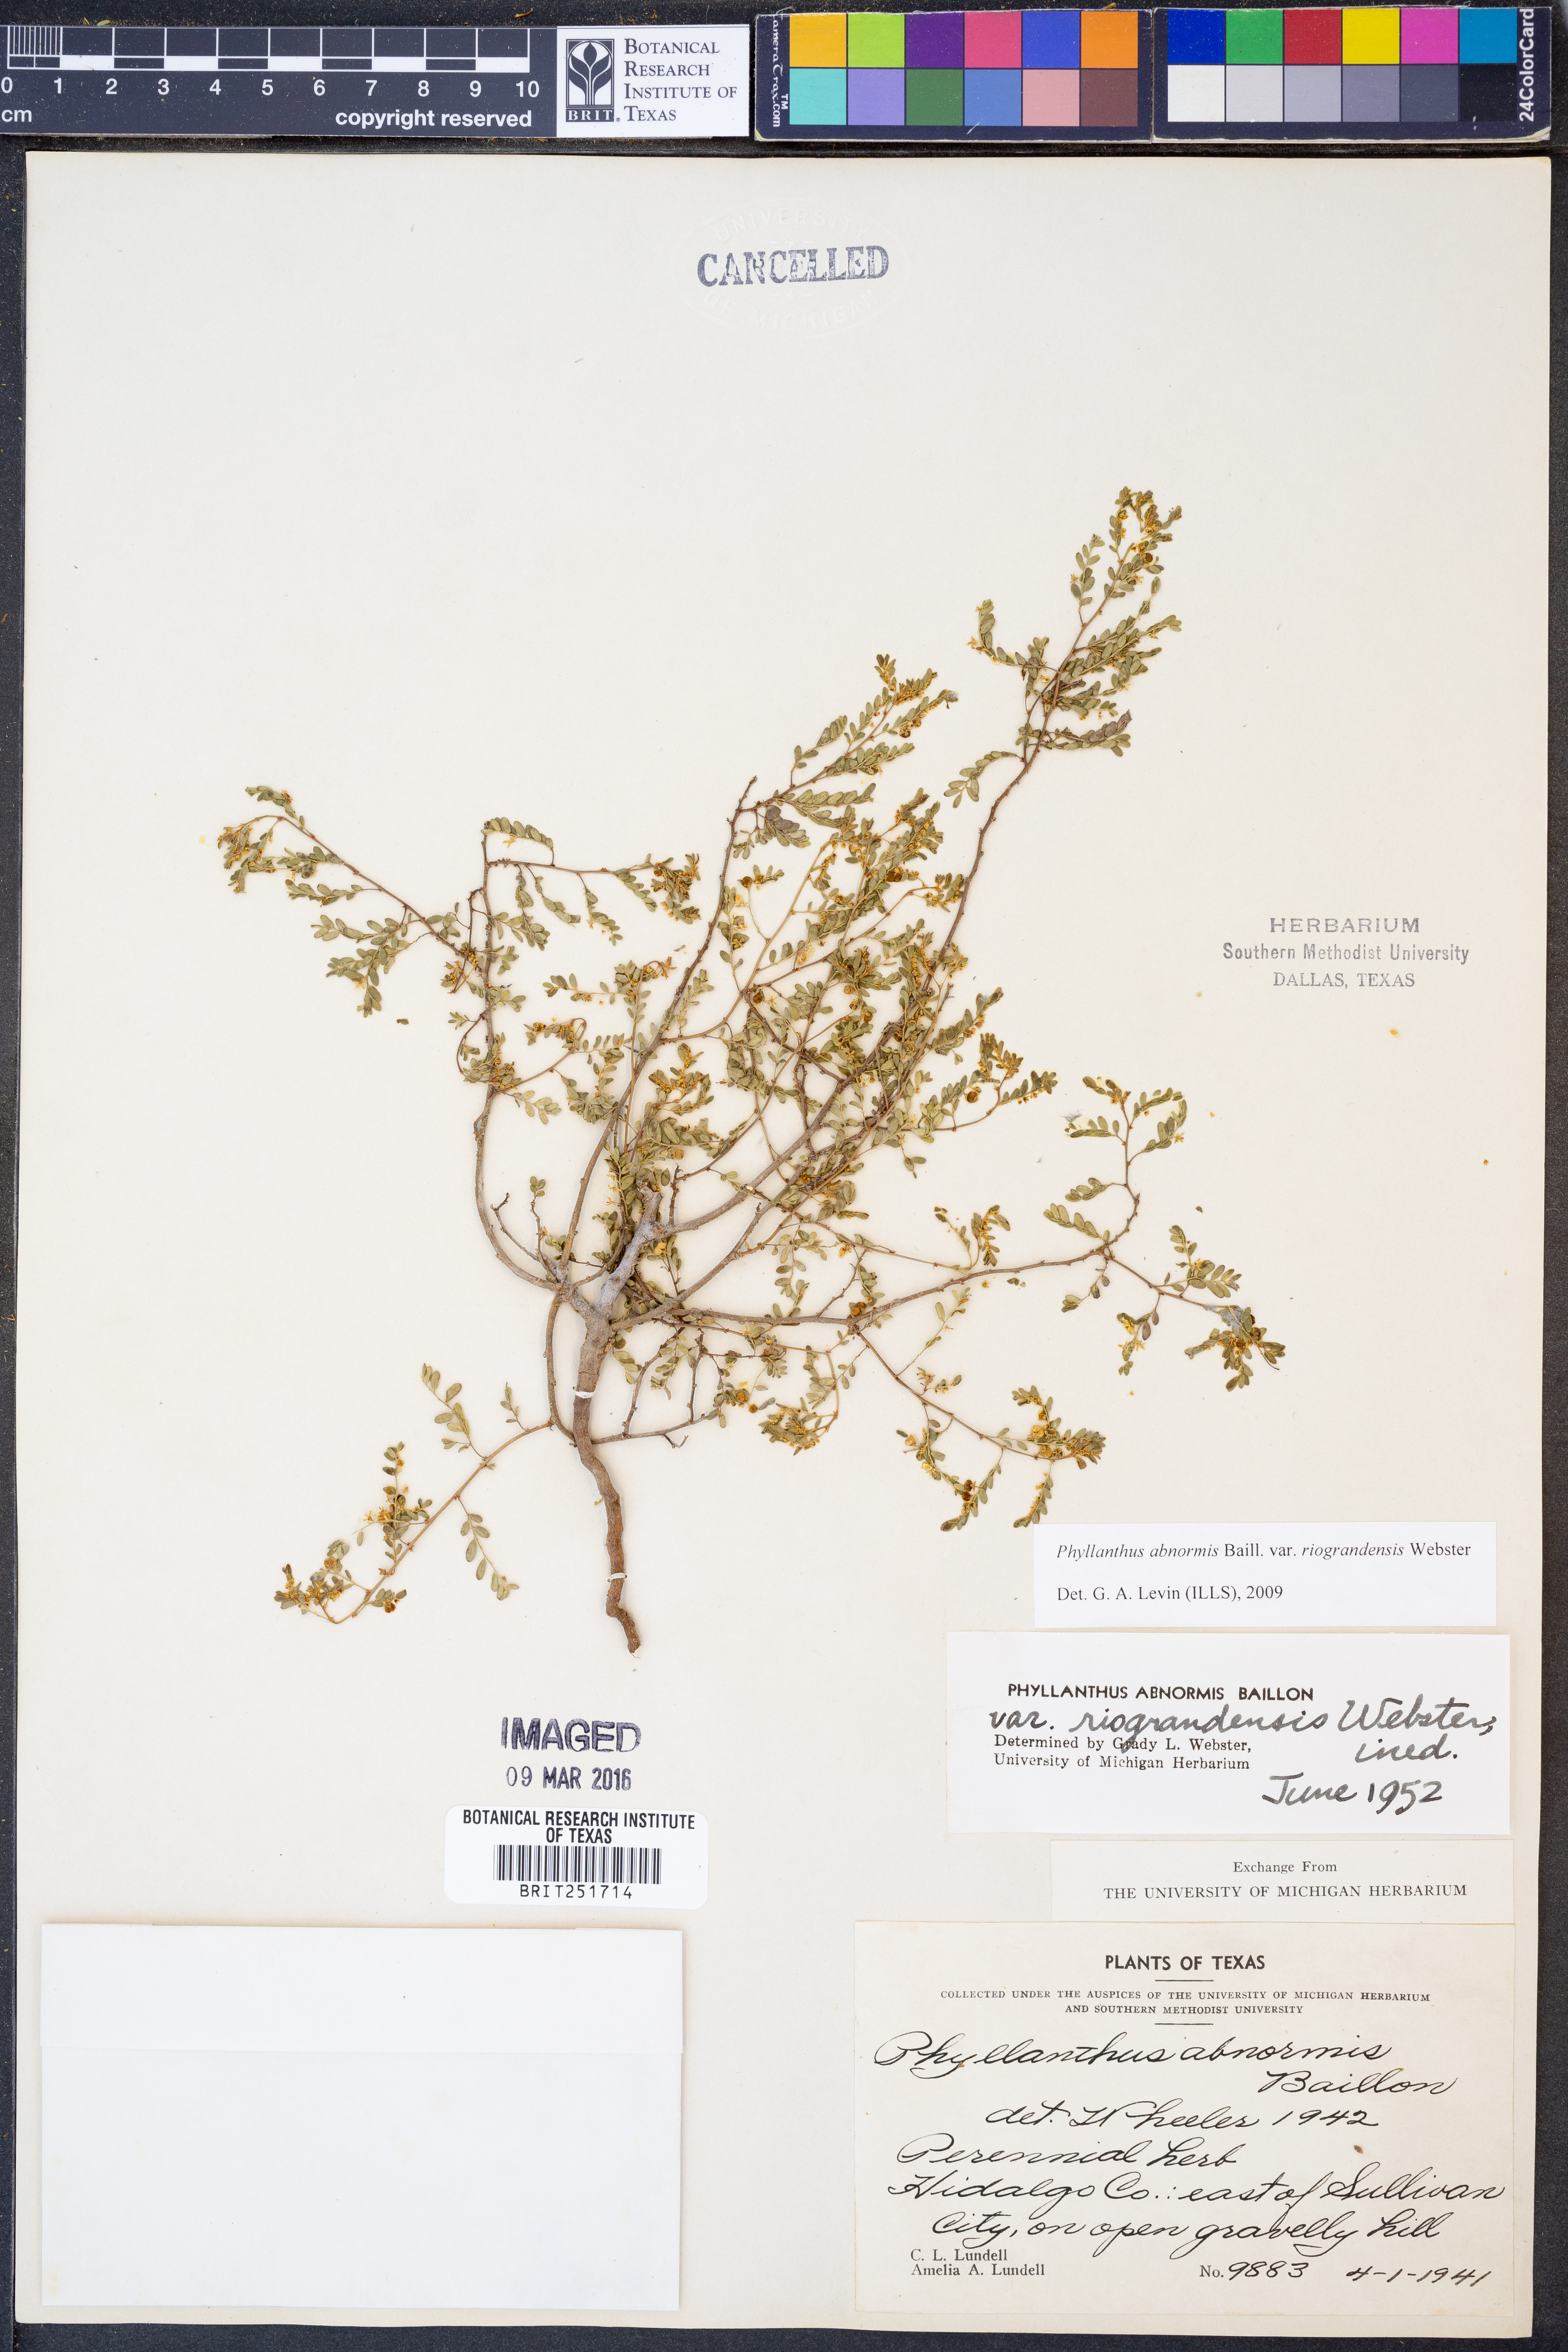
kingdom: Plantae
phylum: Tracheophyta
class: Magnoliopsida
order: Malpighiales
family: Phyllanthaceae
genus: Phyllanthus
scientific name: Phyllanthus abnormis
